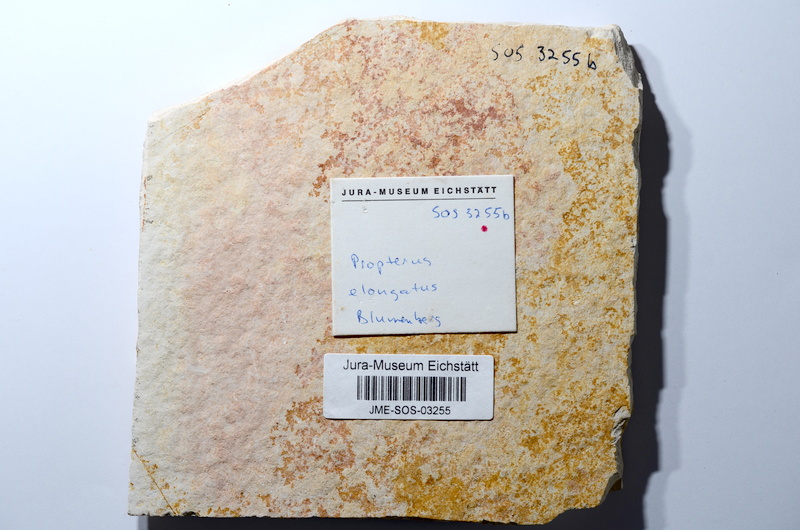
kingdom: Animalia
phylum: Chordata
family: Macrosemiidae
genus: Propterus
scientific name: Propterus elongatus
